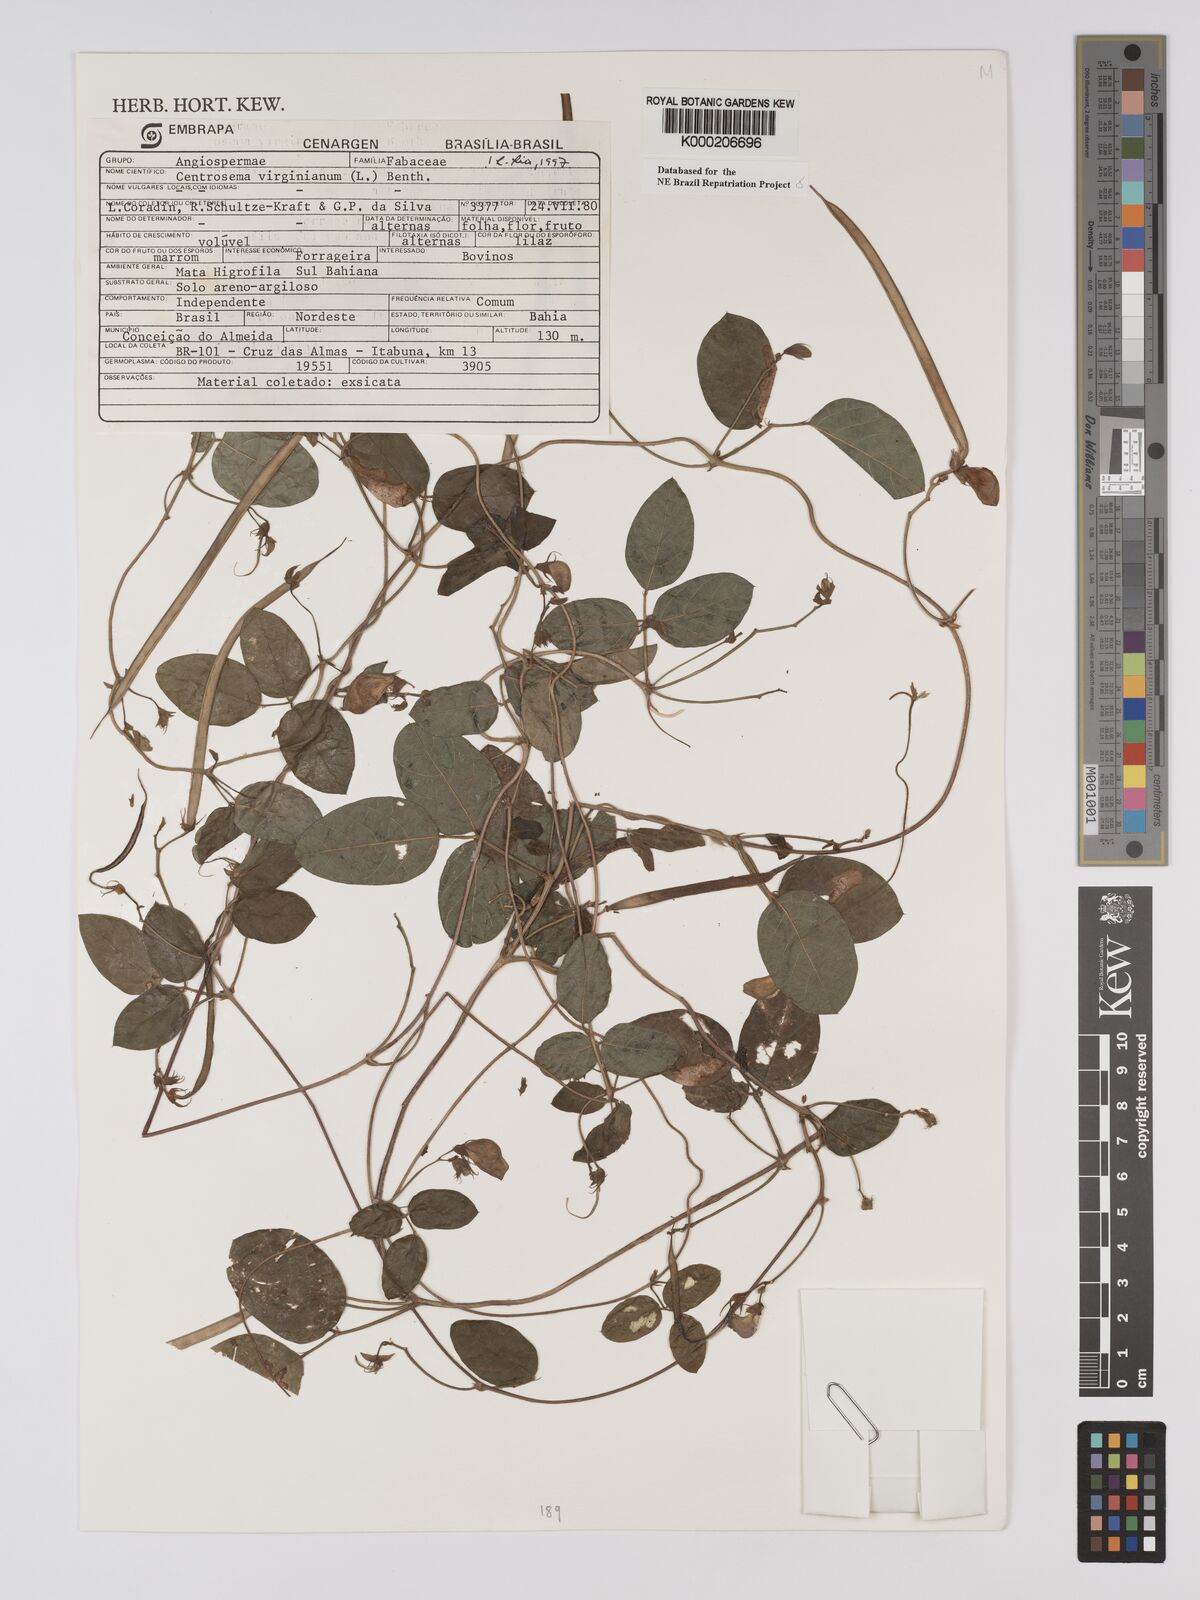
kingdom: Plantae
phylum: Tracheophyta
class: Magnoliopsida
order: Fabales
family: Fabaceae
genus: Centrosema
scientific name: Centrosema virginianum
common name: Butterfly-pea
